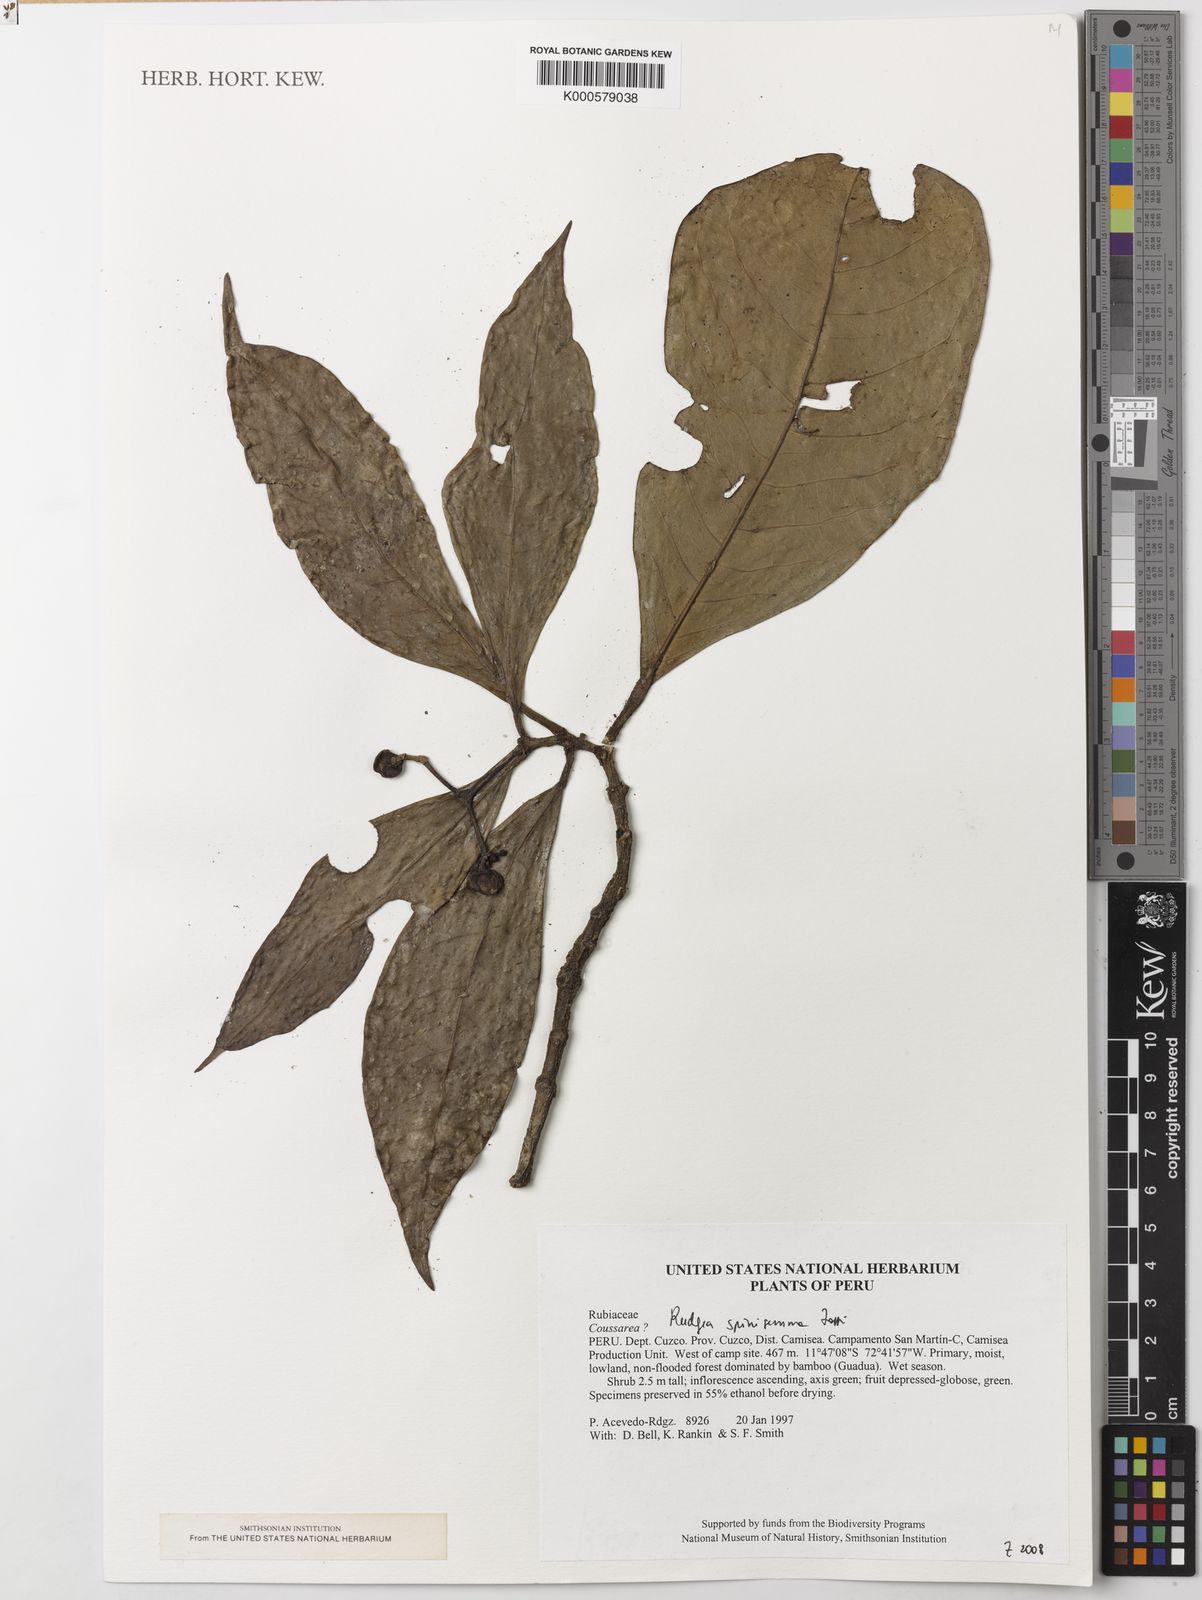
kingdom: Plantae
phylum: Tracheophyta
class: Magnoliopsida
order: Gentianales
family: Rubiaceae
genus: Rudgea
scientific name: Rudgea spinigemma
